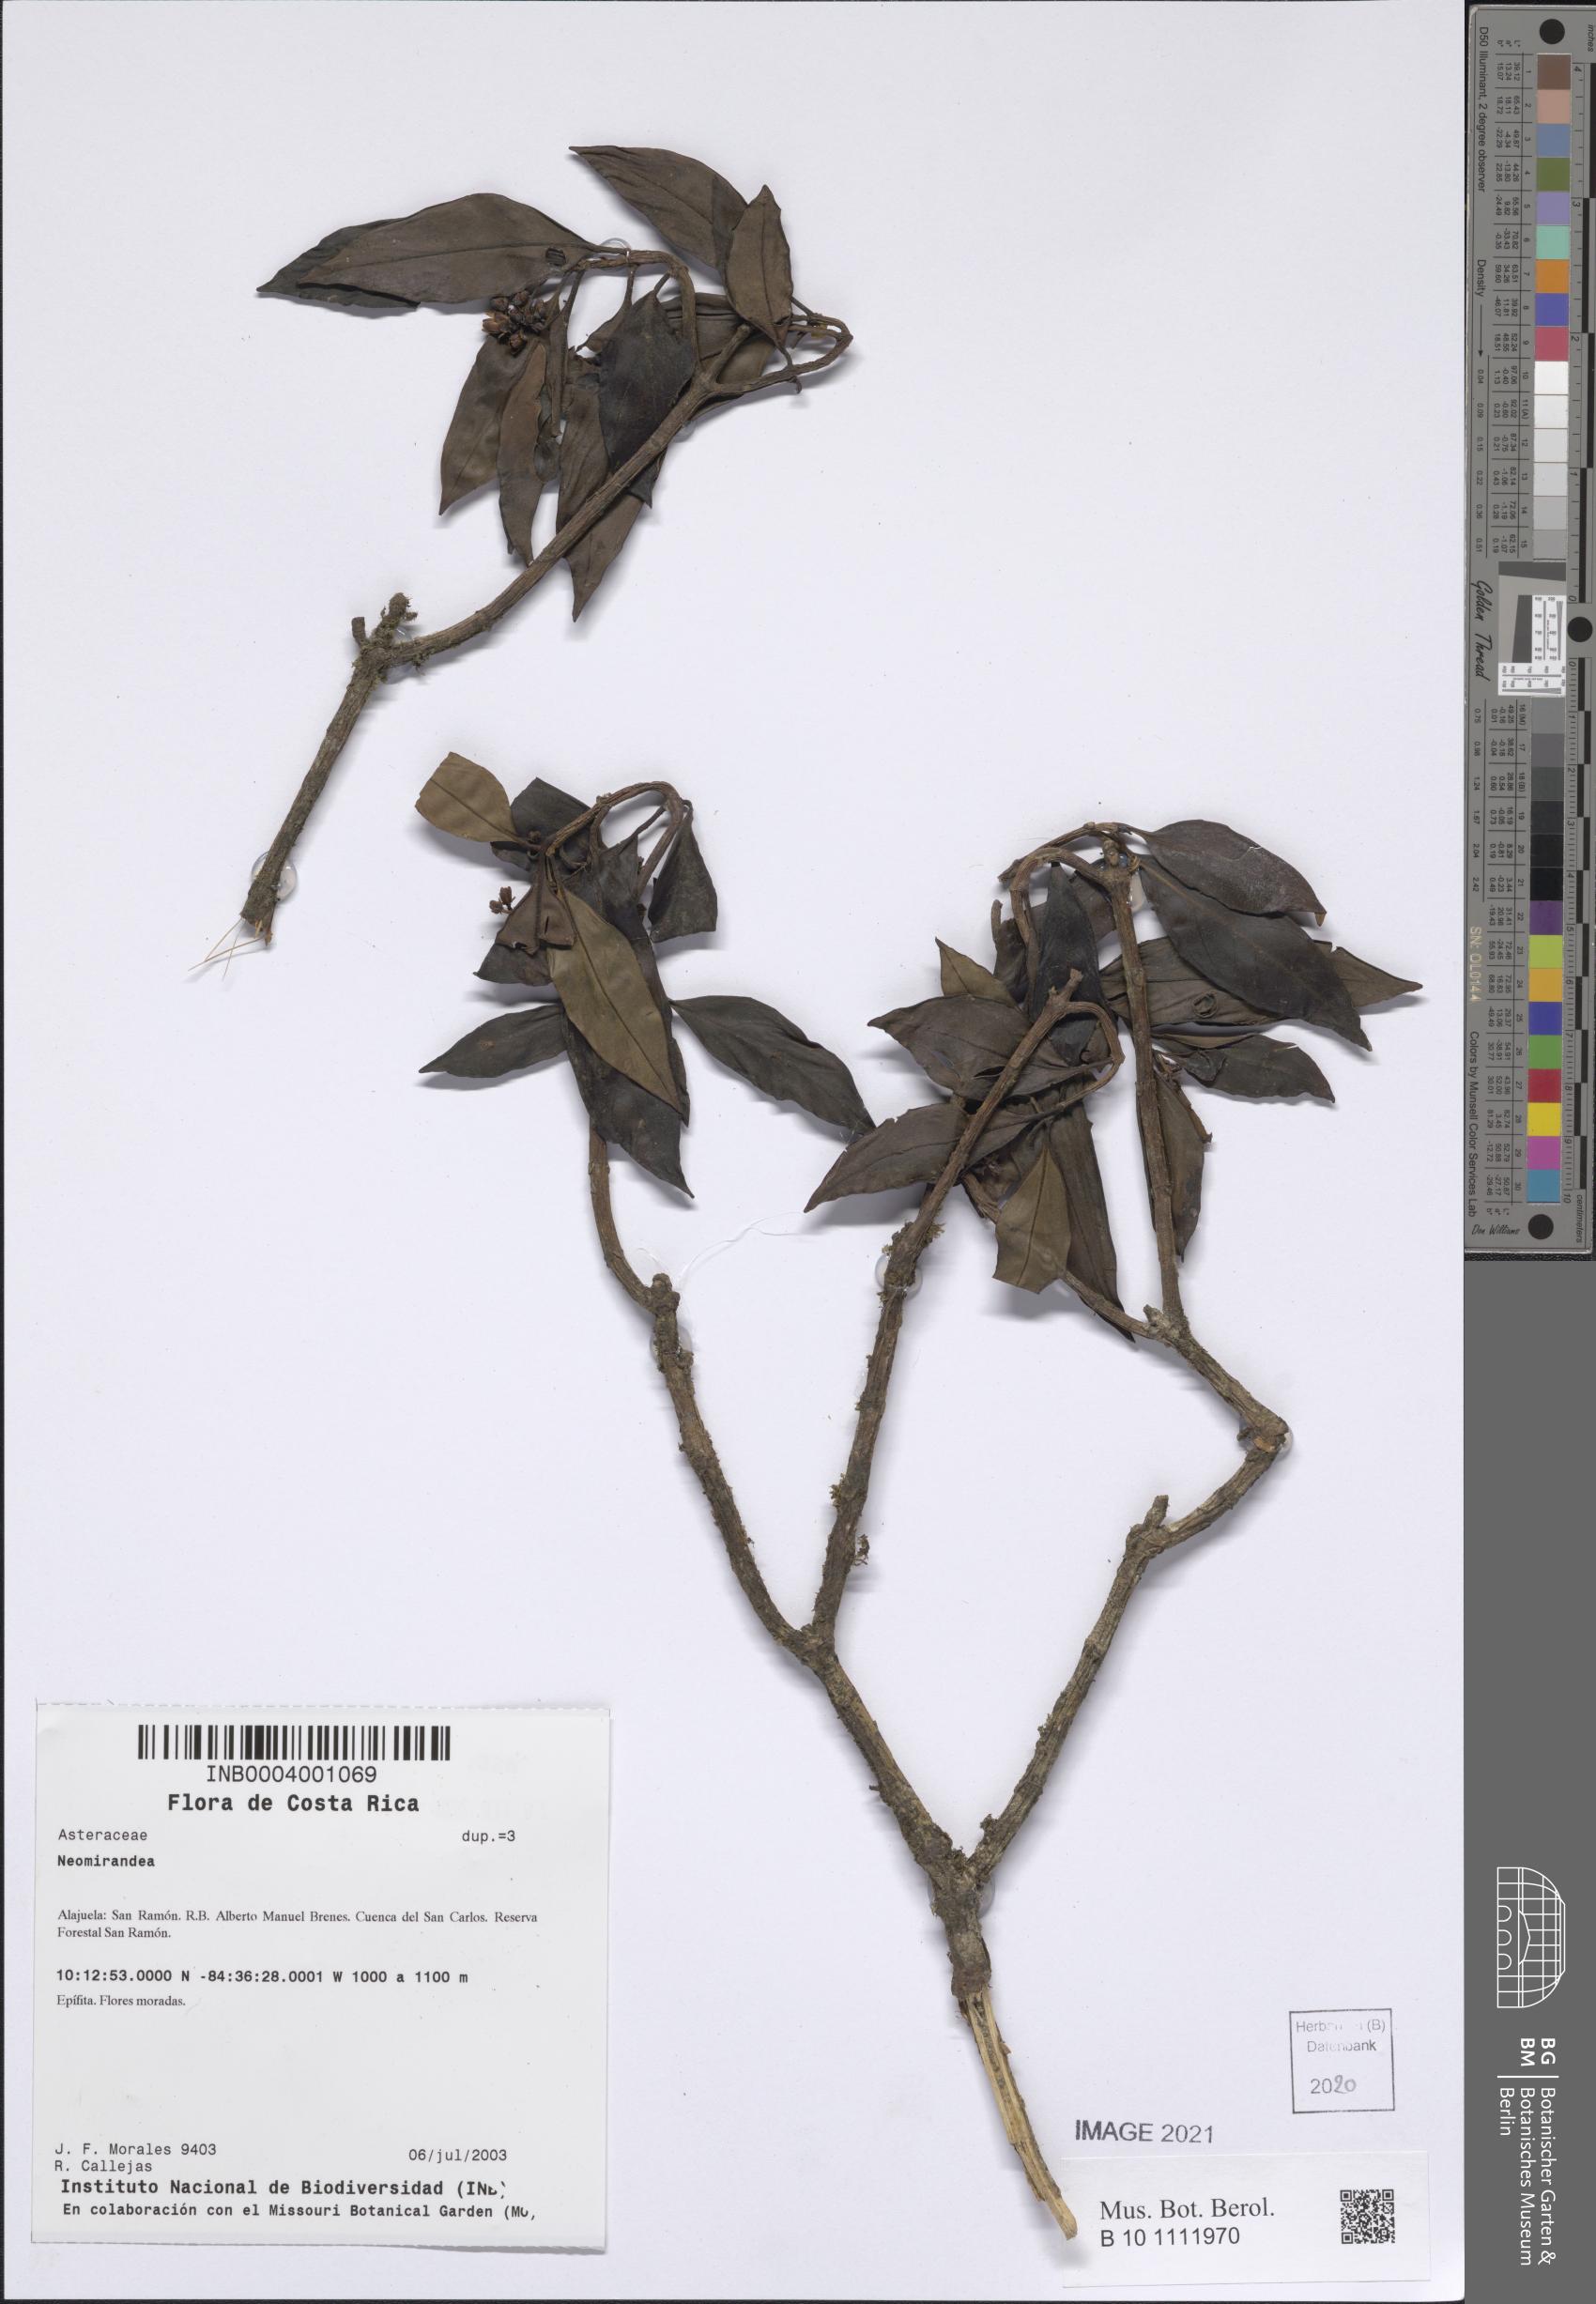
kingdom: Plantae
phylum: Tracheophyta
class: Magnoliopsida
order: Asterales
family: Asteraceae
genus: Neomirandea
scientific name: Neomirandea
